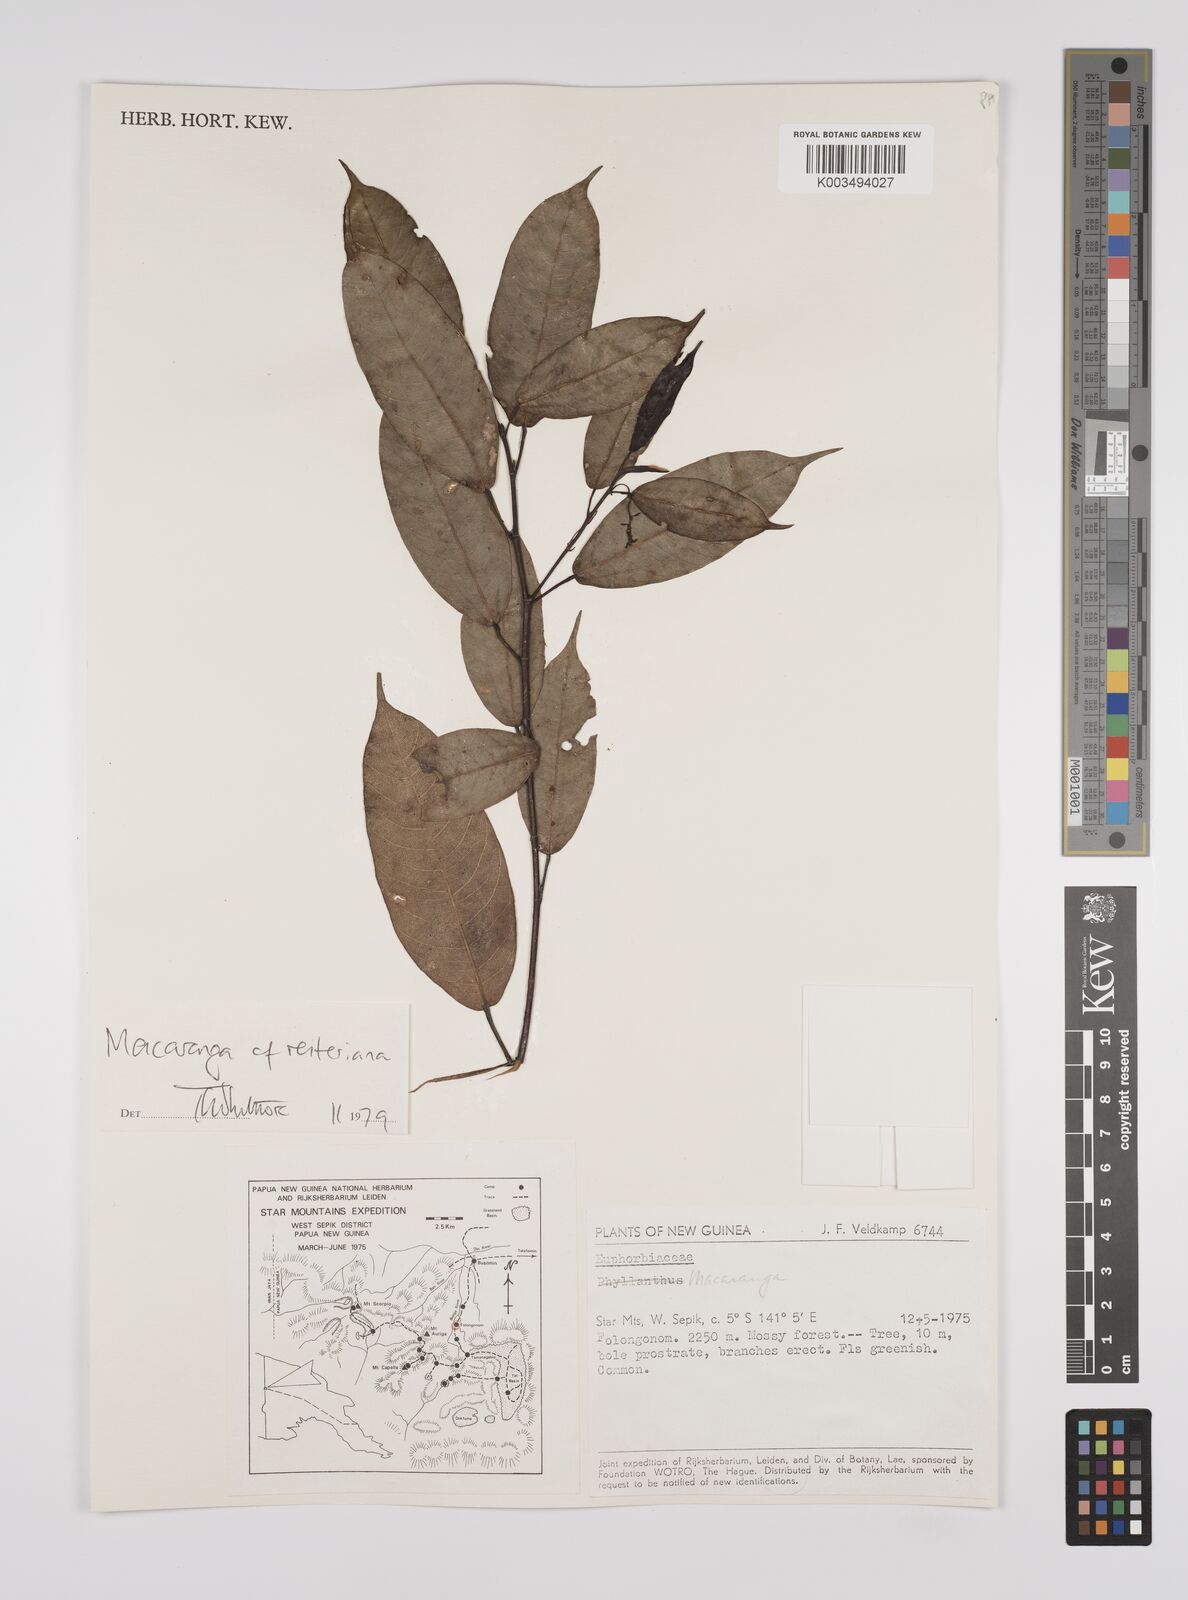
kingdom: Plantae
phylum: Tracheophyta
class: Magnoliopsida
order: Malpighiales
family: Euphorbiaceae
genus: Macaranga
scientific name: Macaranga reiteriana
